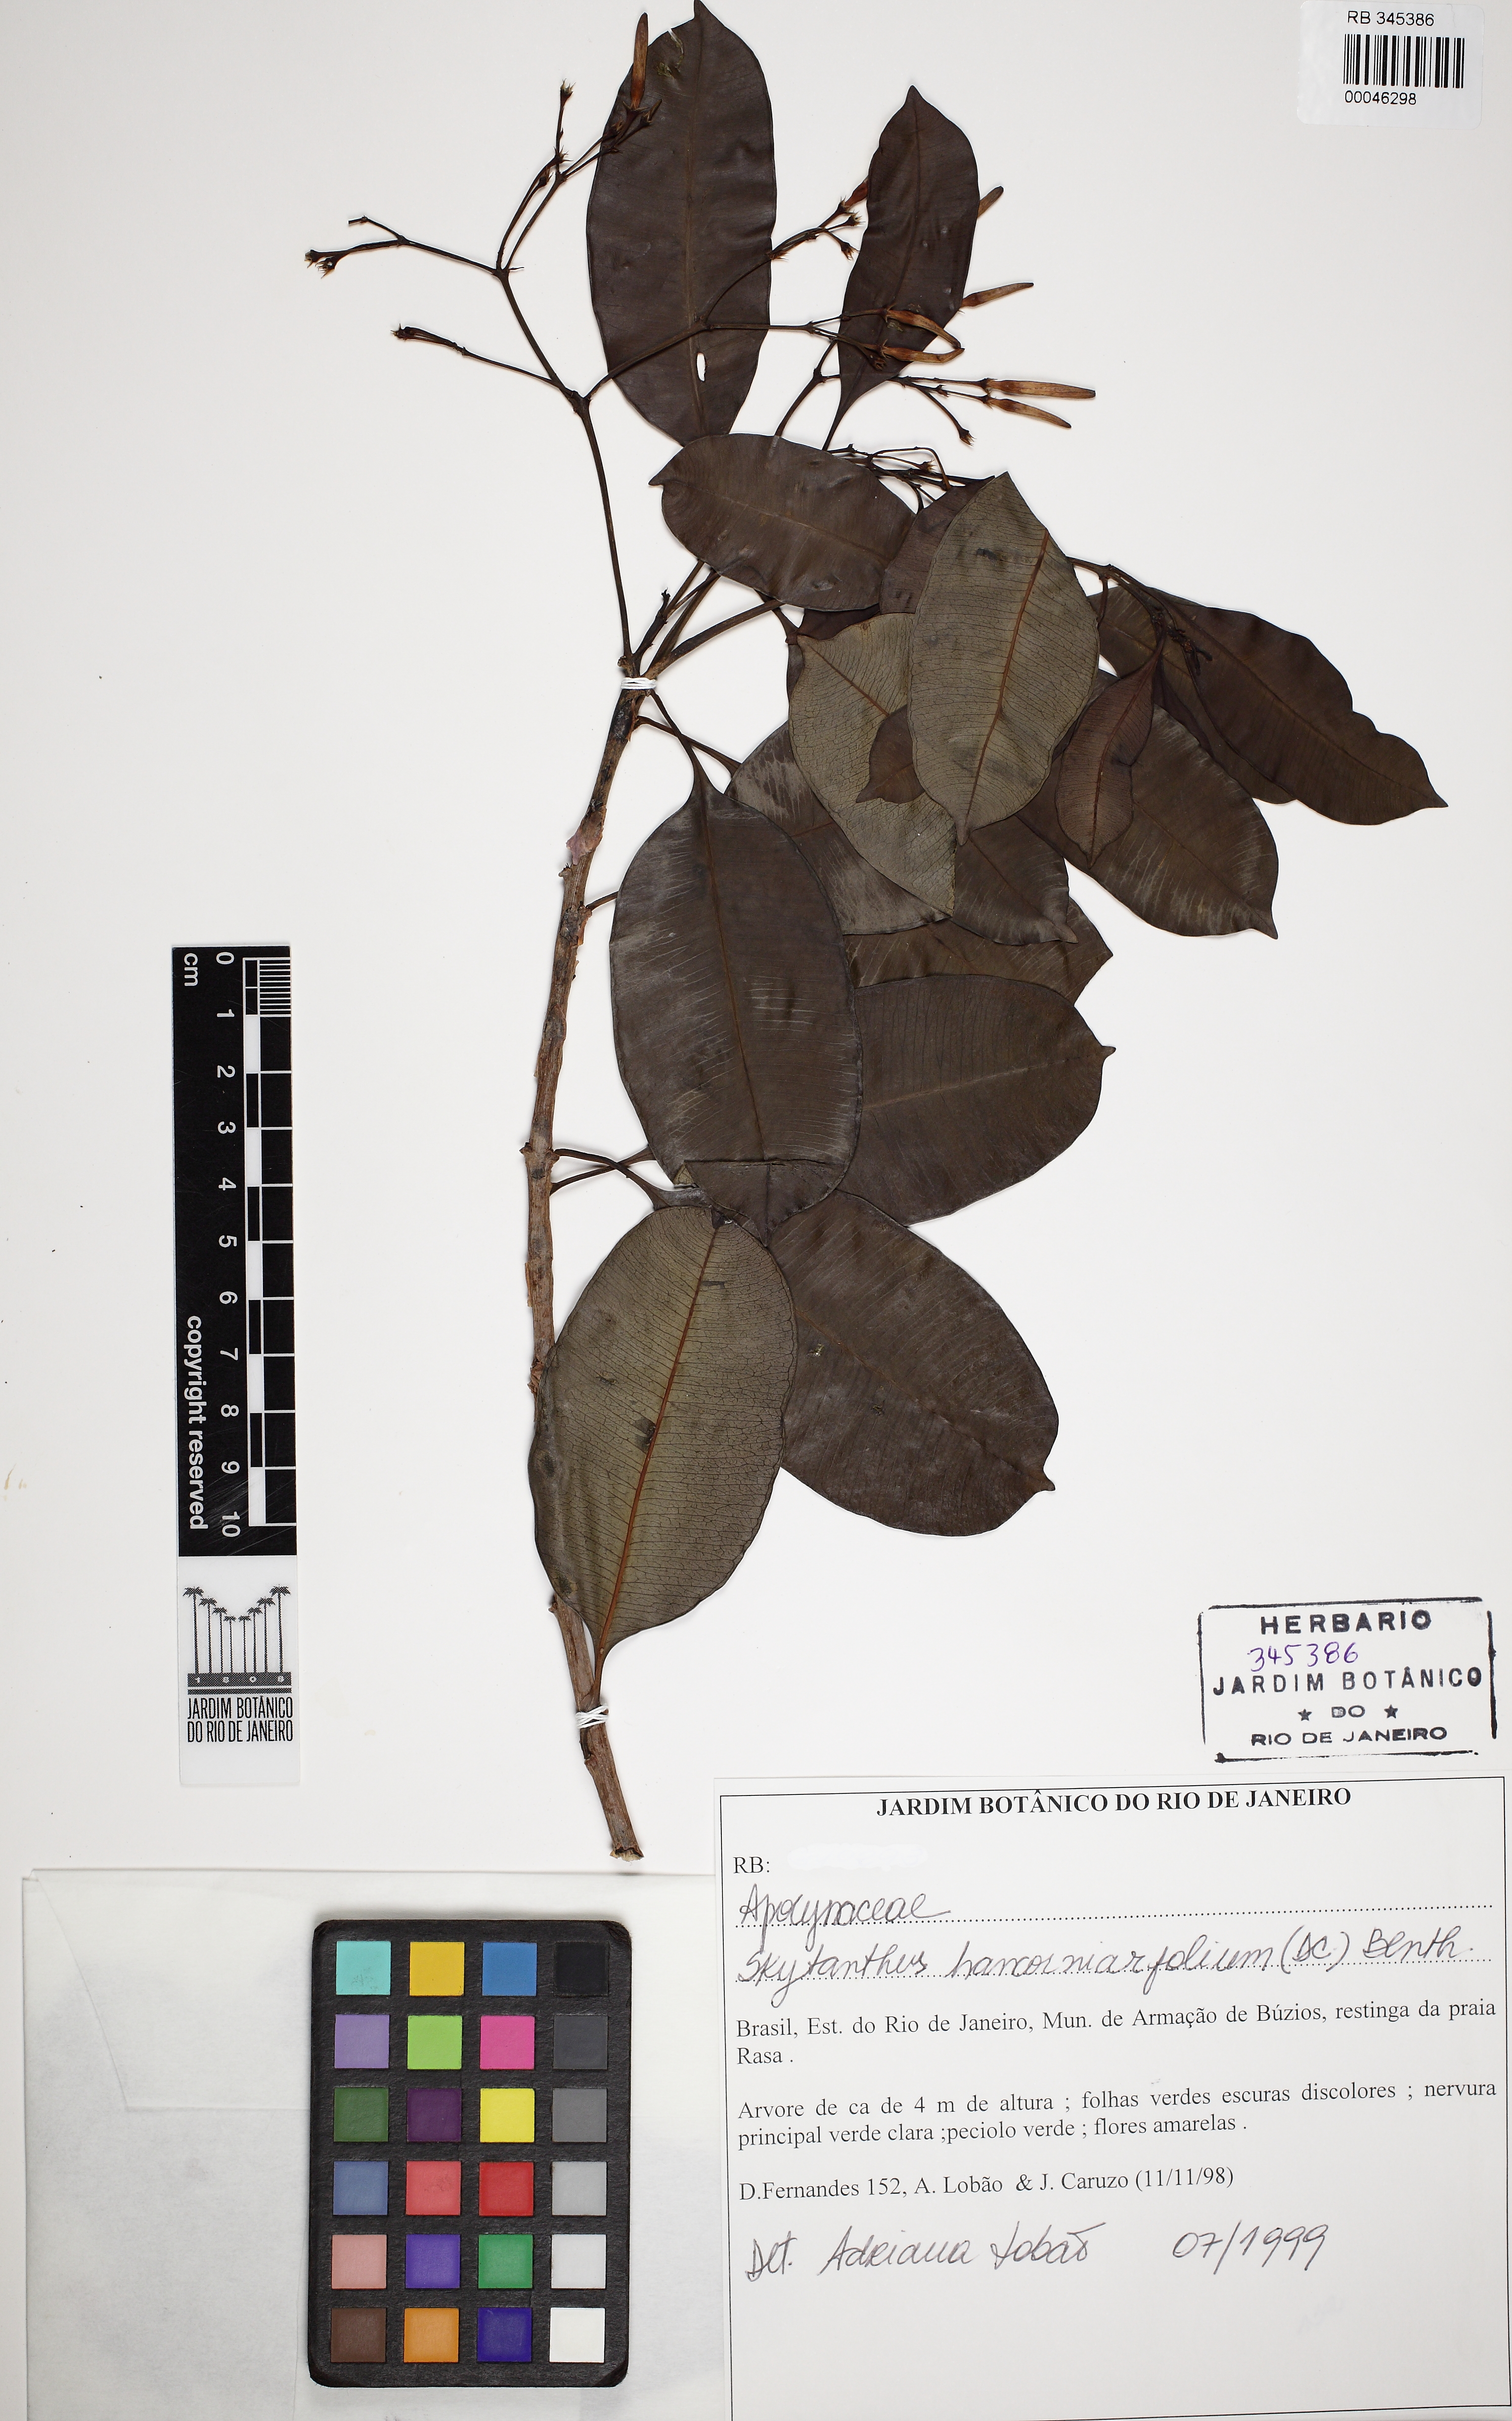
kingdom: Plantae
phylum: Tracheophyta
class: Magnoliopsida
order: Gentianales
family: Apocynaceae
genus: Skytanthus
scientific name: Skytanthus hancorniifolius
